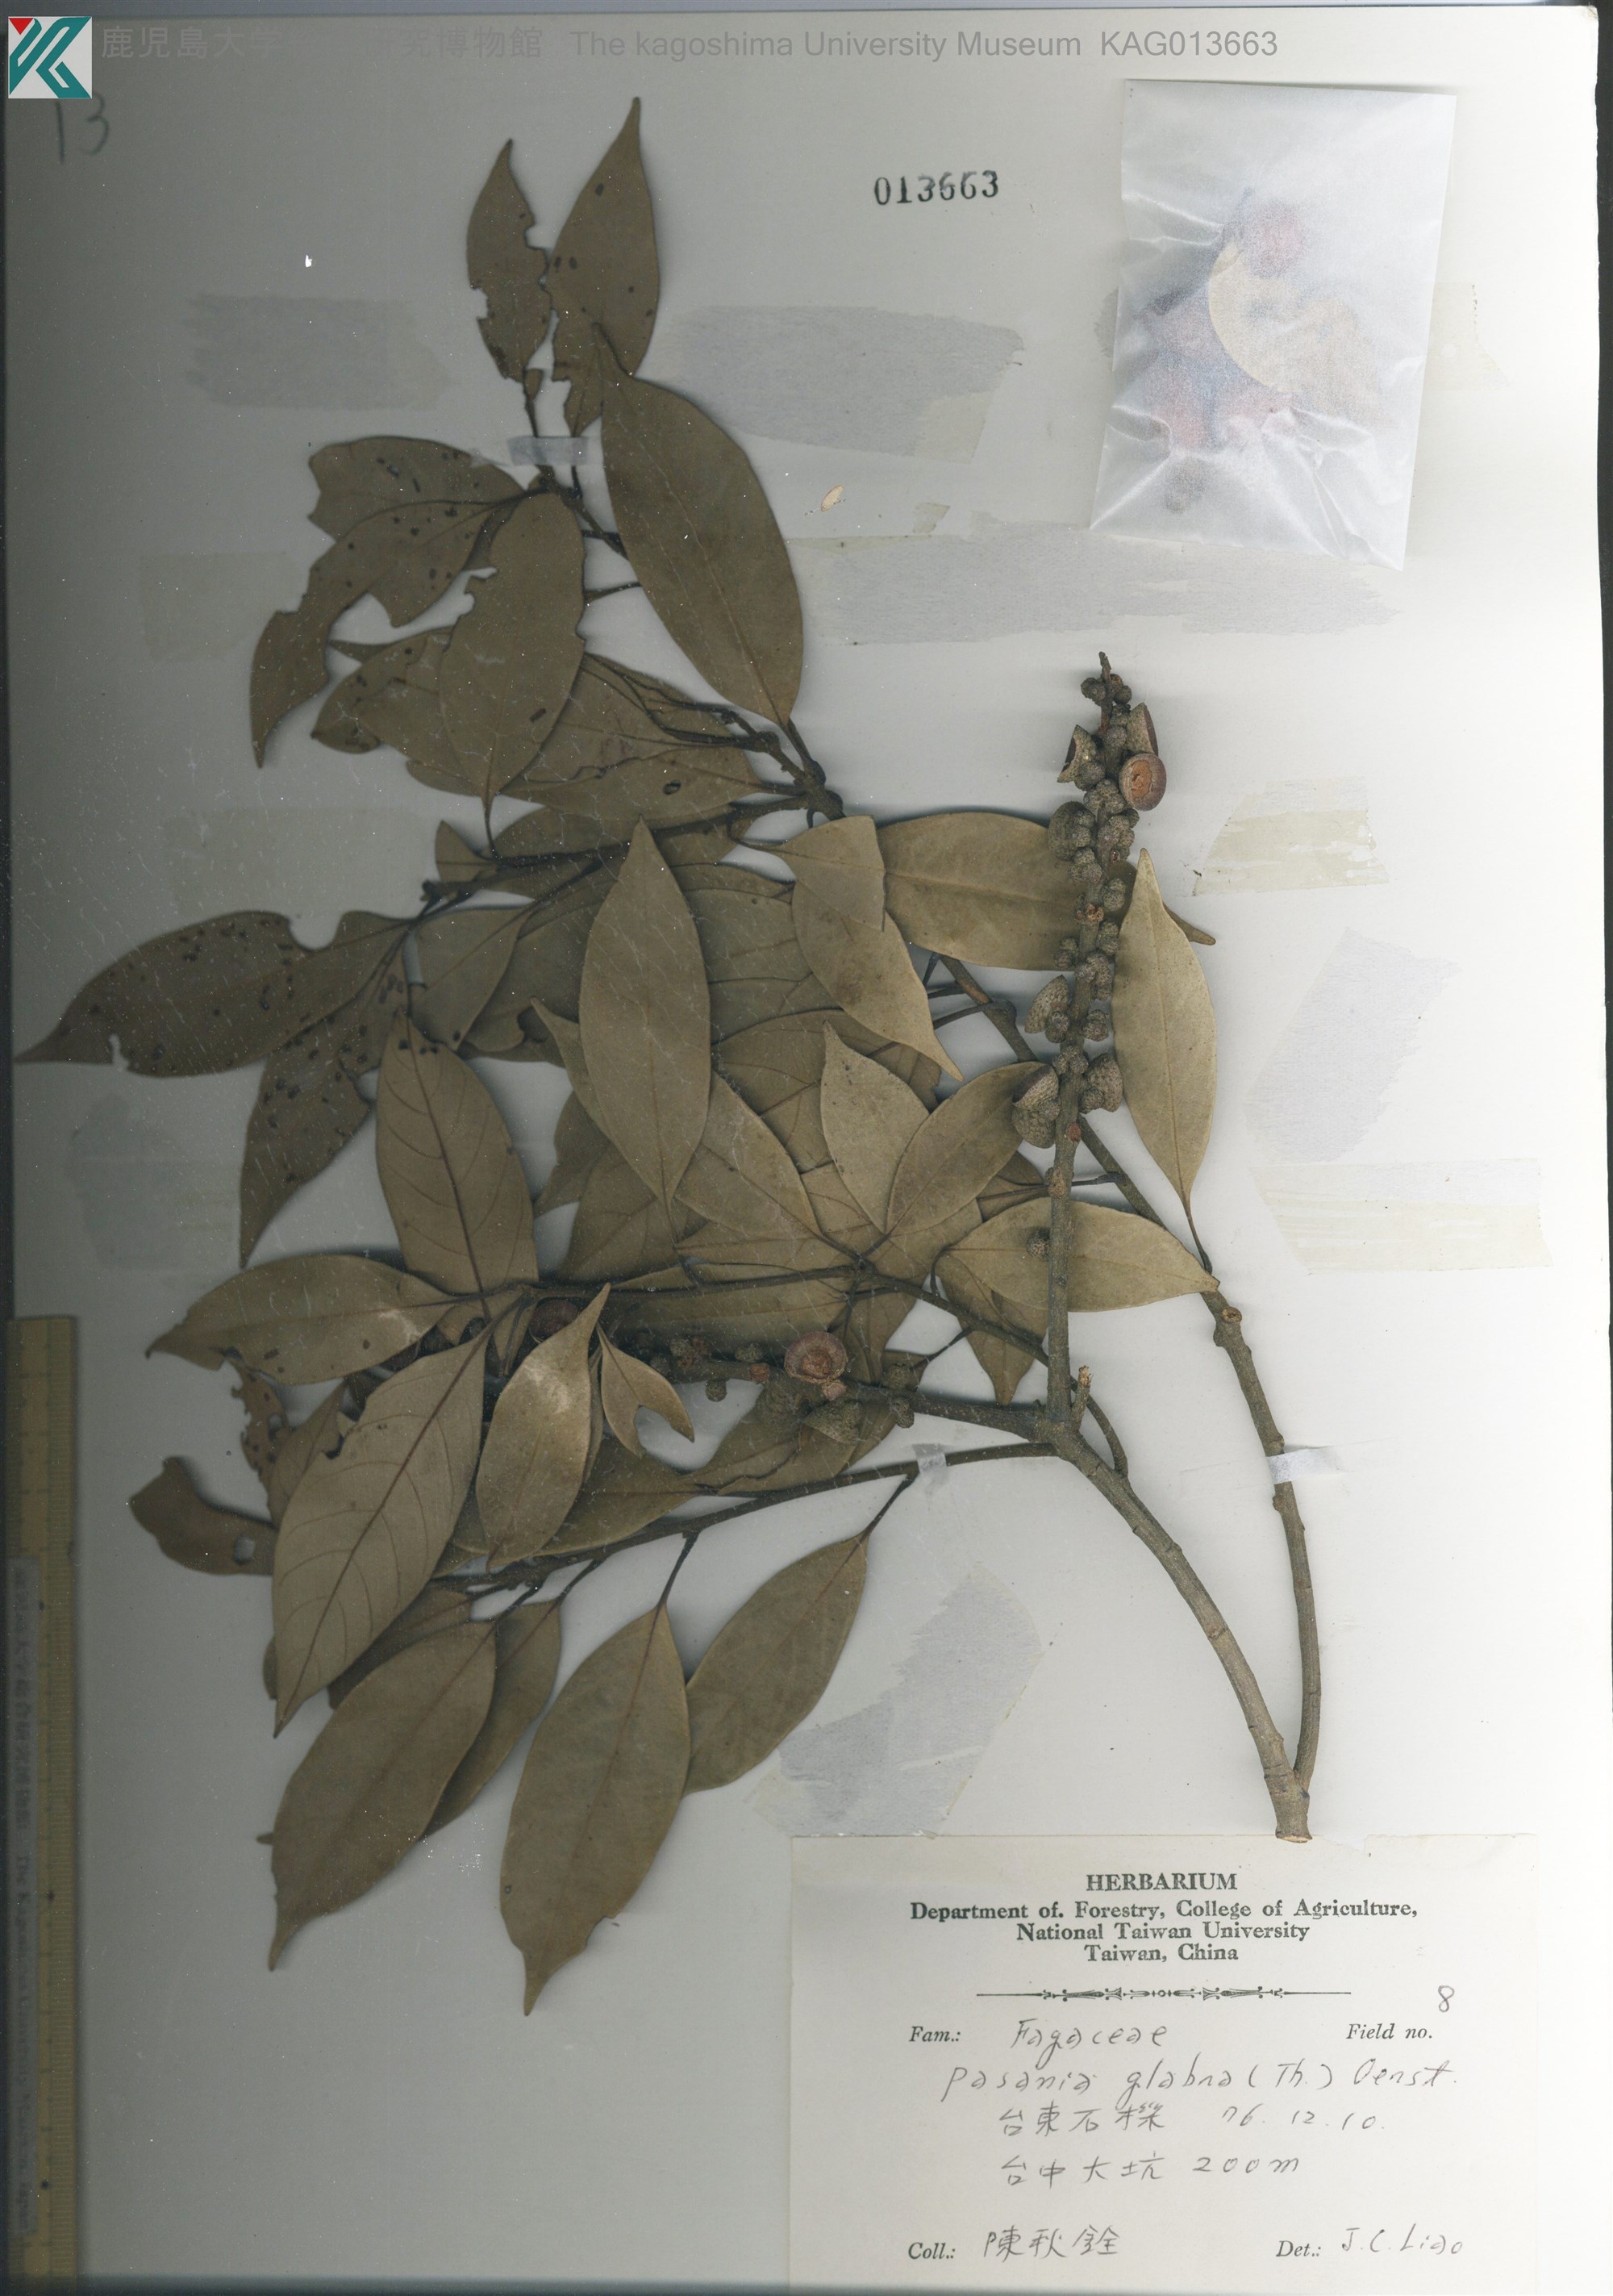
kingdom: Plantae
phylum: Tracheophyta
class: Magnoliopsida
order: Fagales
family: Fagaceae
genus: Lithocarpus
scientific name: Lithocarpus glaber
